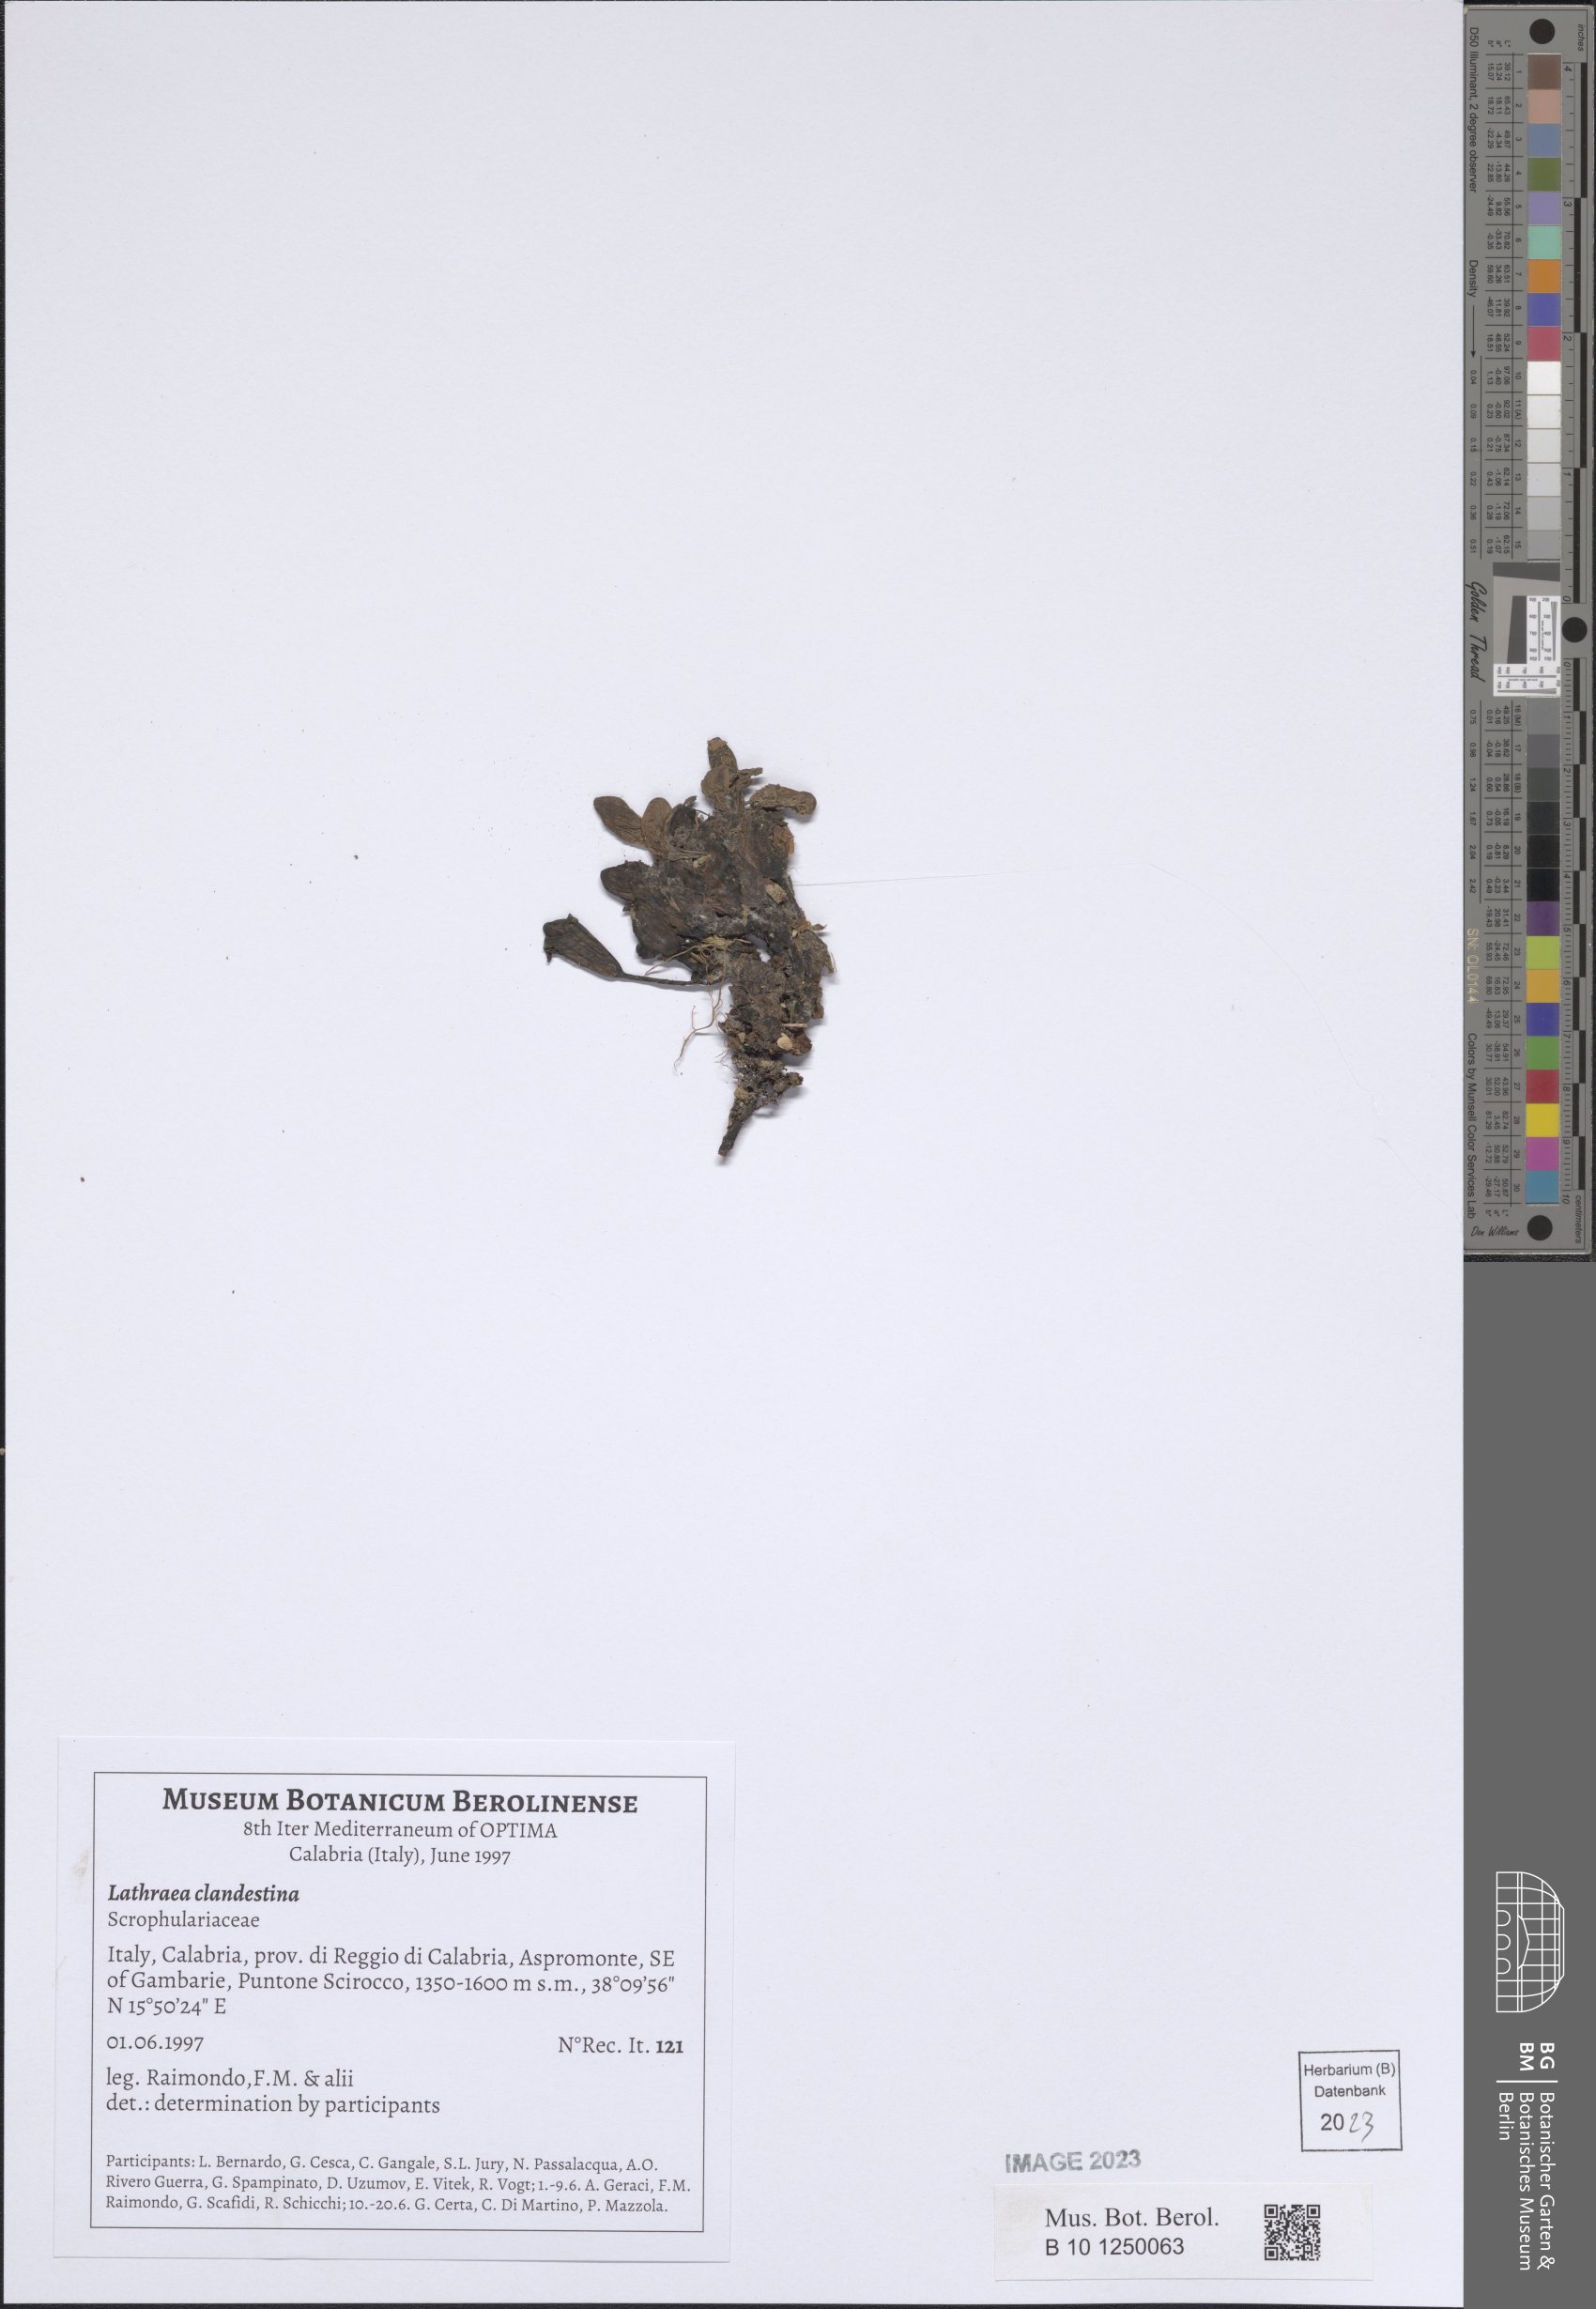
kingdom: Plantae
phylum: Tracheophyta
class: Magnoliopsida
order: Lamiales
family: Orobanchaceae
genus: Lathraea
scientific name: Lathraea clandestina
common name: Purple toothwort
